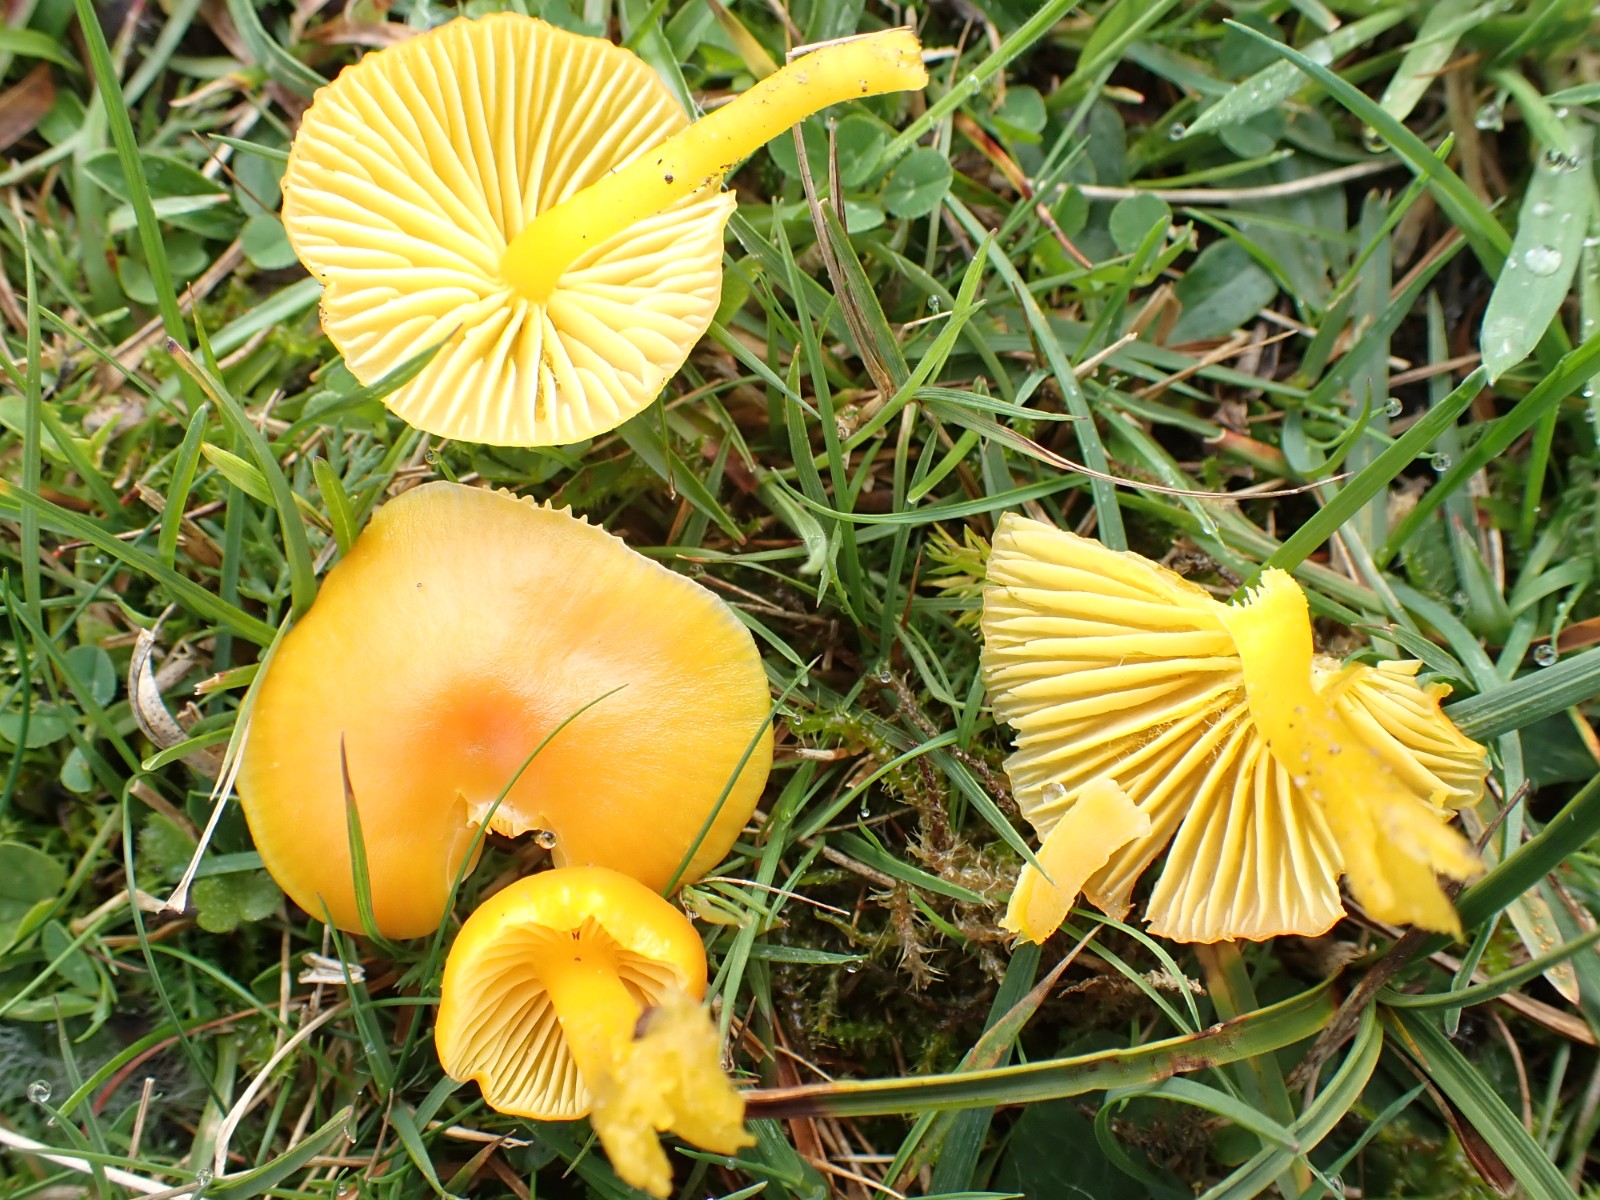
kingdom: Fungi
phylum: Basidiomycota
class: Agaricomycetes
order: Agaricales
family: Hygrophoraceae
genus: Hygrocybe
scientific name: Hygrocybe ceracea
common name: voksgul vokshat
